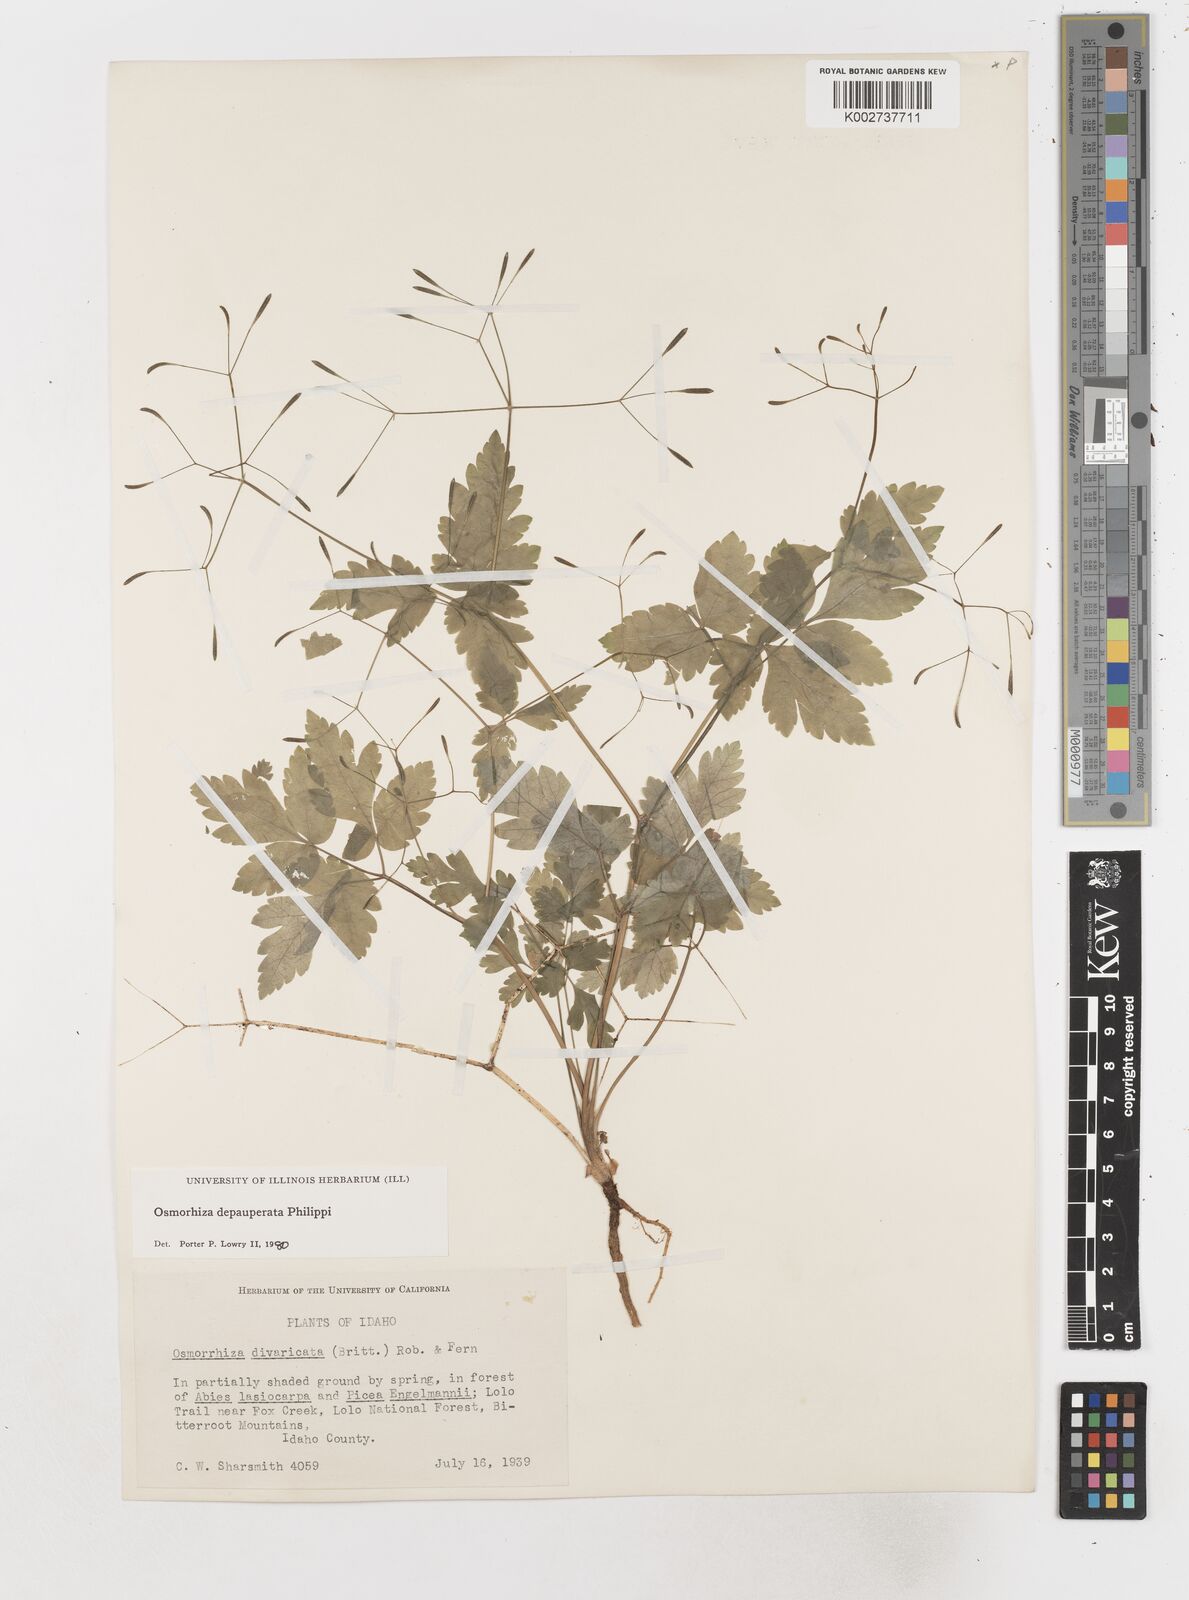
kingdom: Plantae
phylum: Tracheophyta
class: Magnoliopsida
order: Apiales
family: Apiaceae
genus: Osmorhiza
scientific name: Osmorhiza depauperata
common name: Blunt sweet cicely
